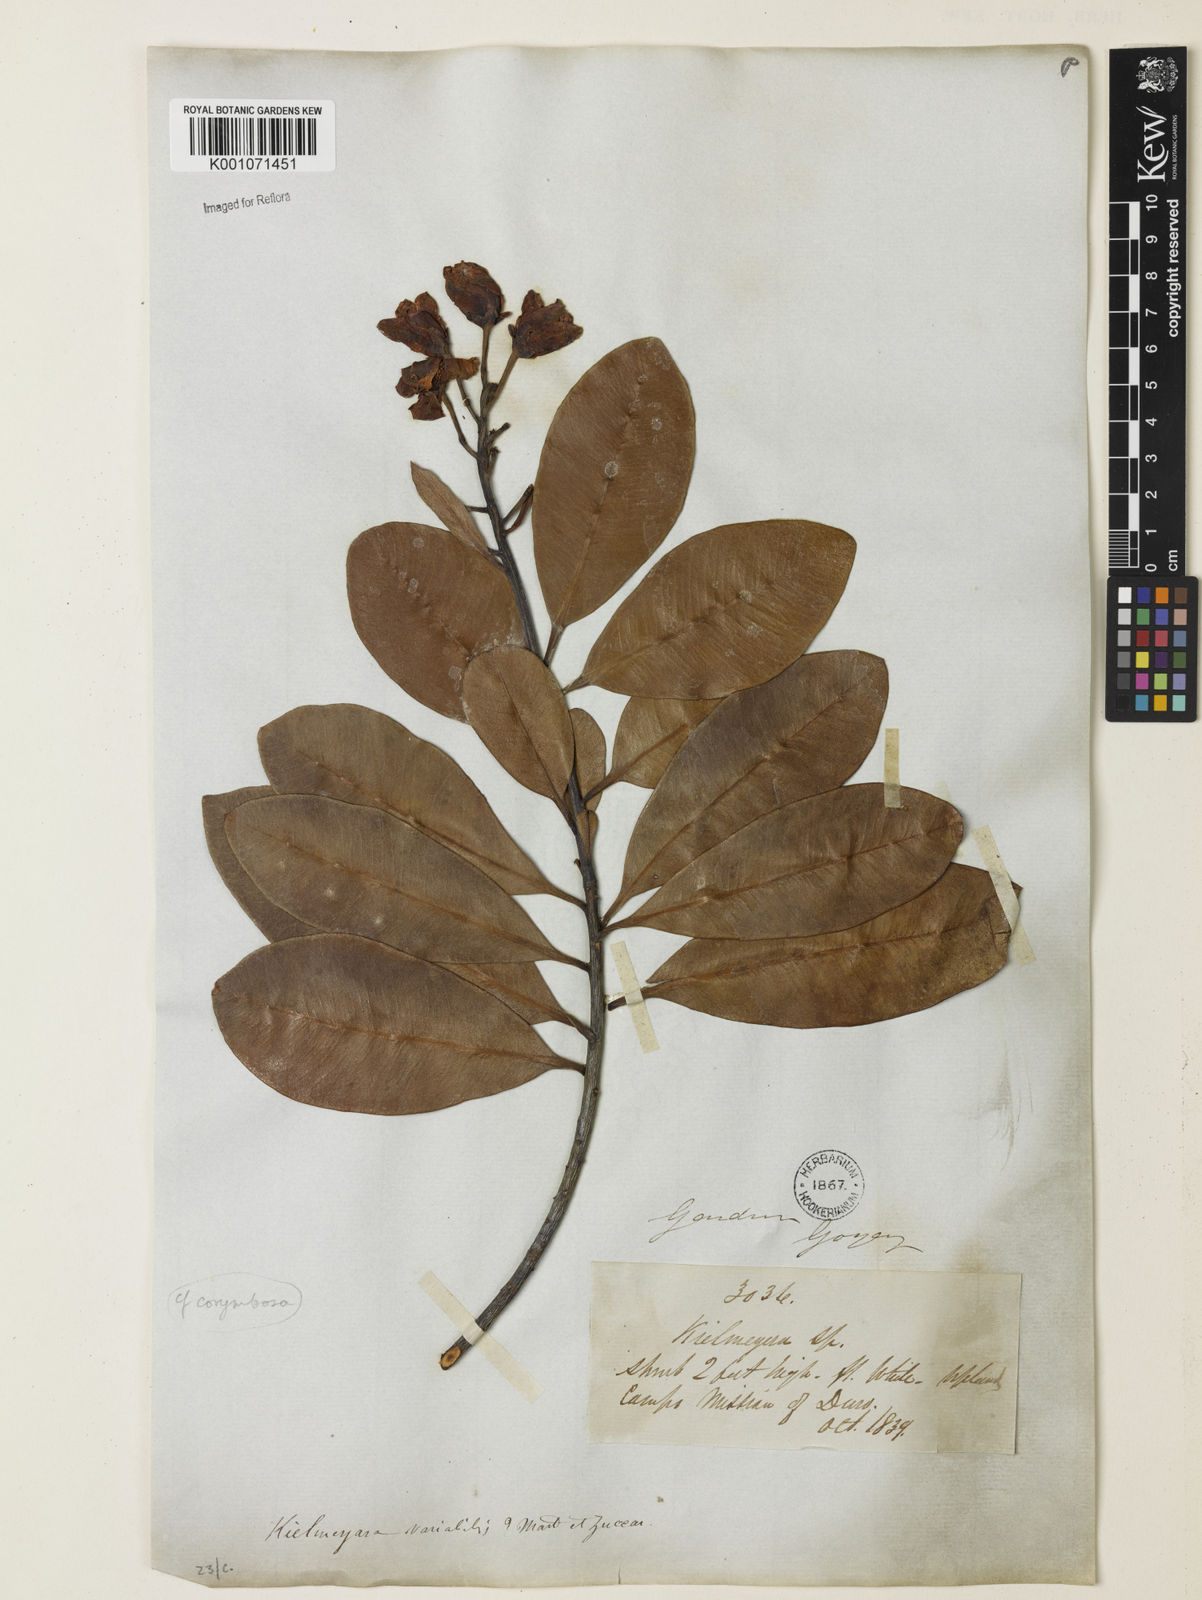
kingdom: Plantae
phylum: Tracheophyta
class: Magnoliopsida
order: Malpighiales
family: Calophyllaceae
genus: Kielmeyera
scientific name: Kielmeyera corymbosa
